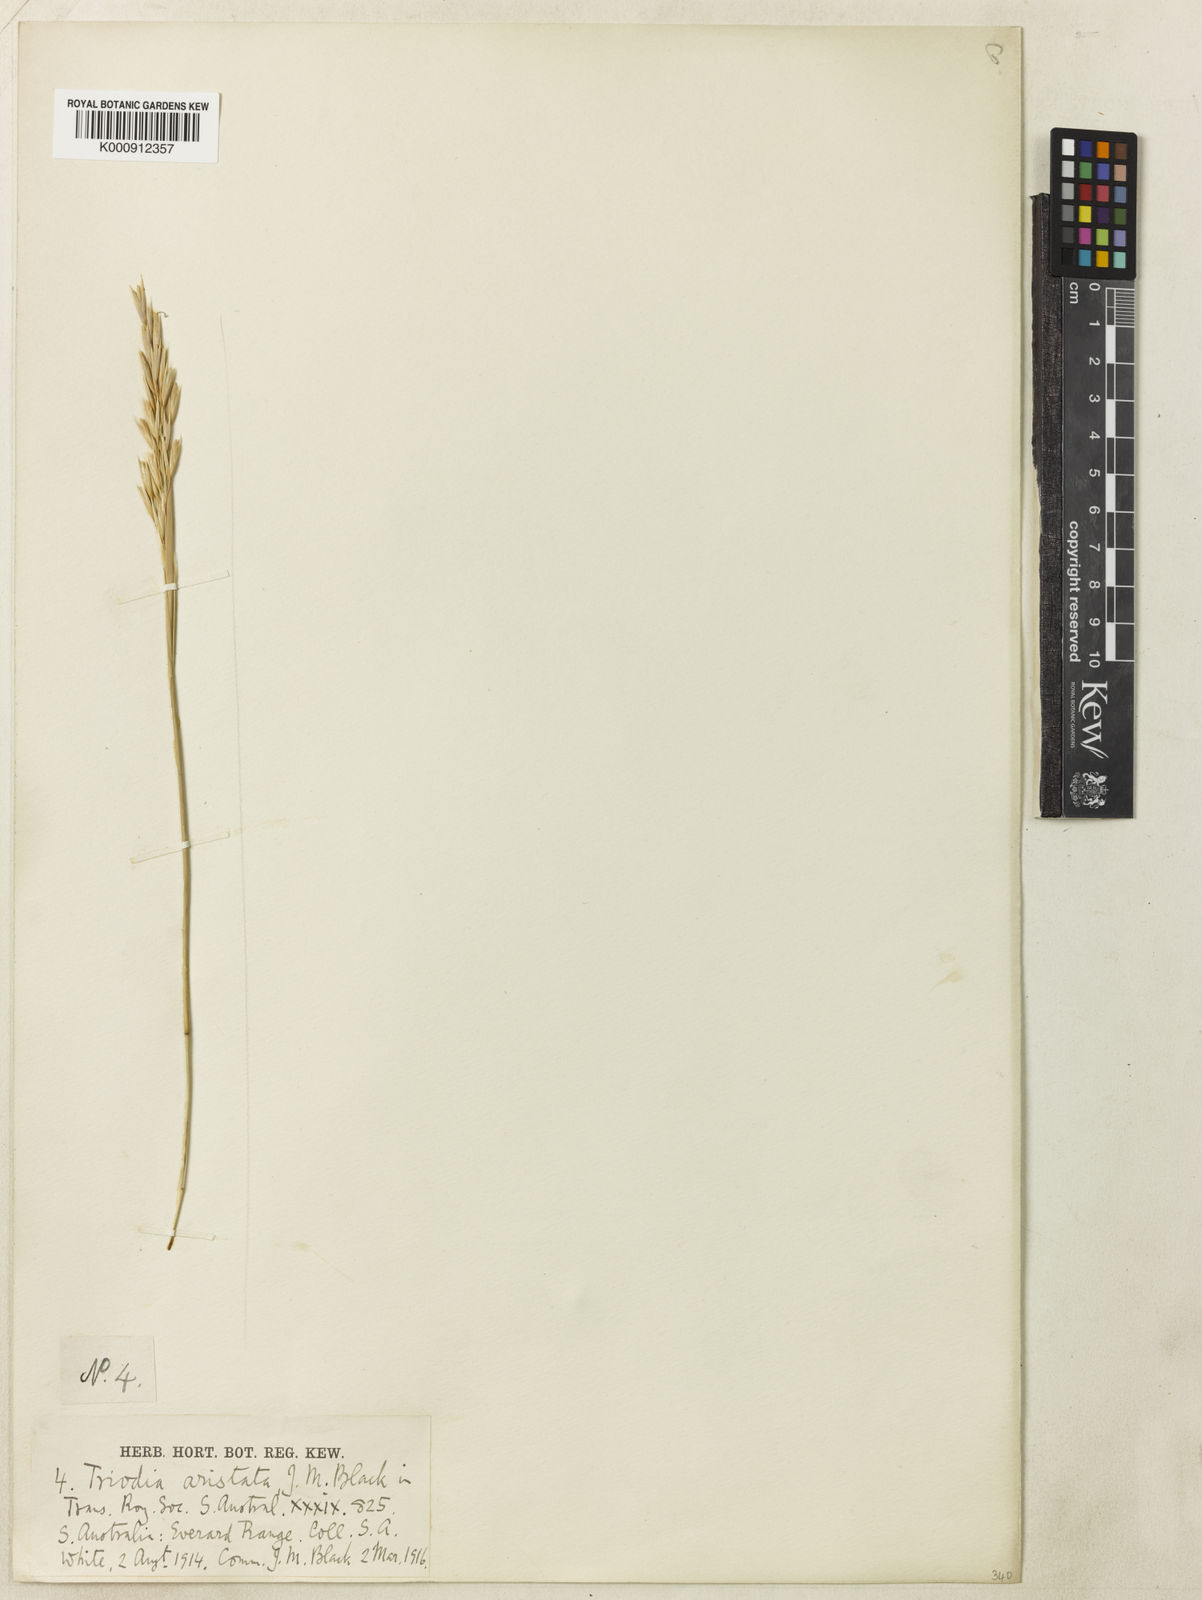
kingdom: Plantae
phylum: Tracheophyta
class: Liliopsida
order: Poales
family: Poaceae
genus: Triodia
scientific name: Triodia
